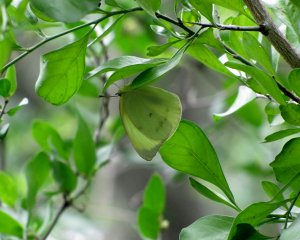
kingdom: Animalia
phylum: Arthropoda
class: Insecta
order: Lepidoptera
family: Pieridae
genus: Kricogonia
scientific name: Kricogonia lyside
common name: Lyside Sulphur
